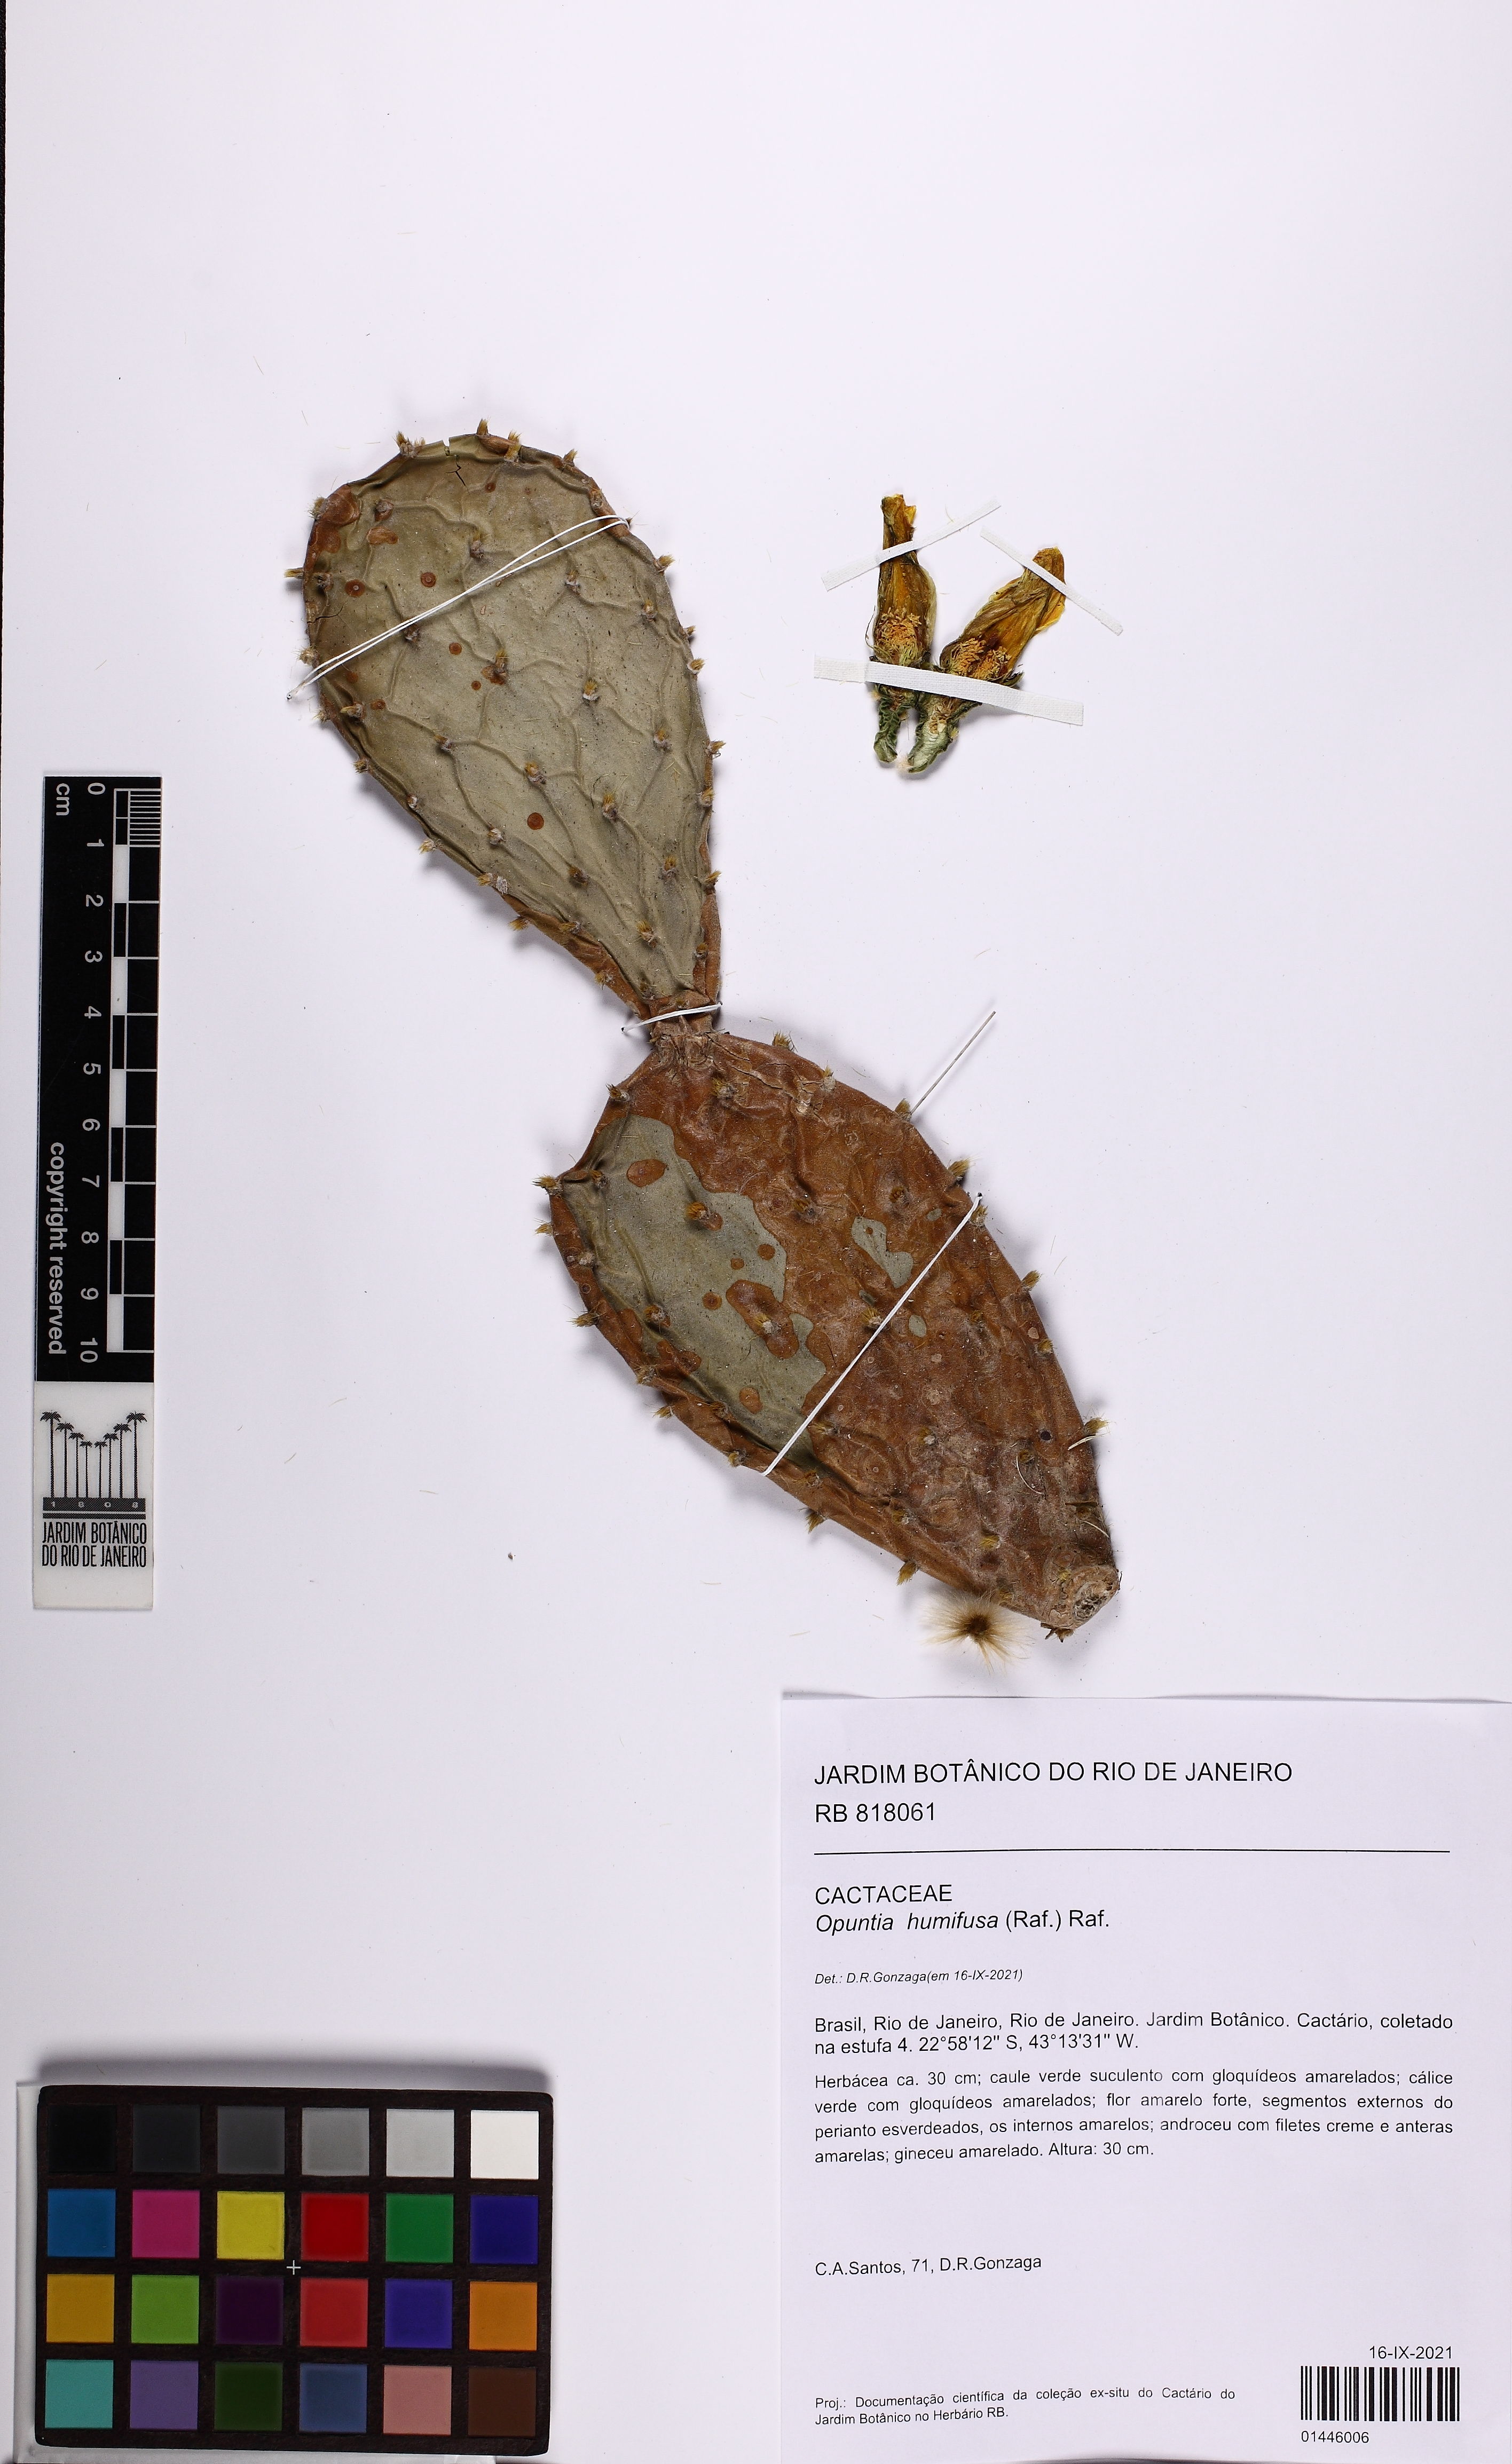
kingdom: Plantae
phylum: Tracheophyta
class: Magnoliopsida
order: Caryophyllales
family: Cactaceae
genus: Opuntia
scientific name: Opuntia humifusa
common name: Eastern prickly-pear
